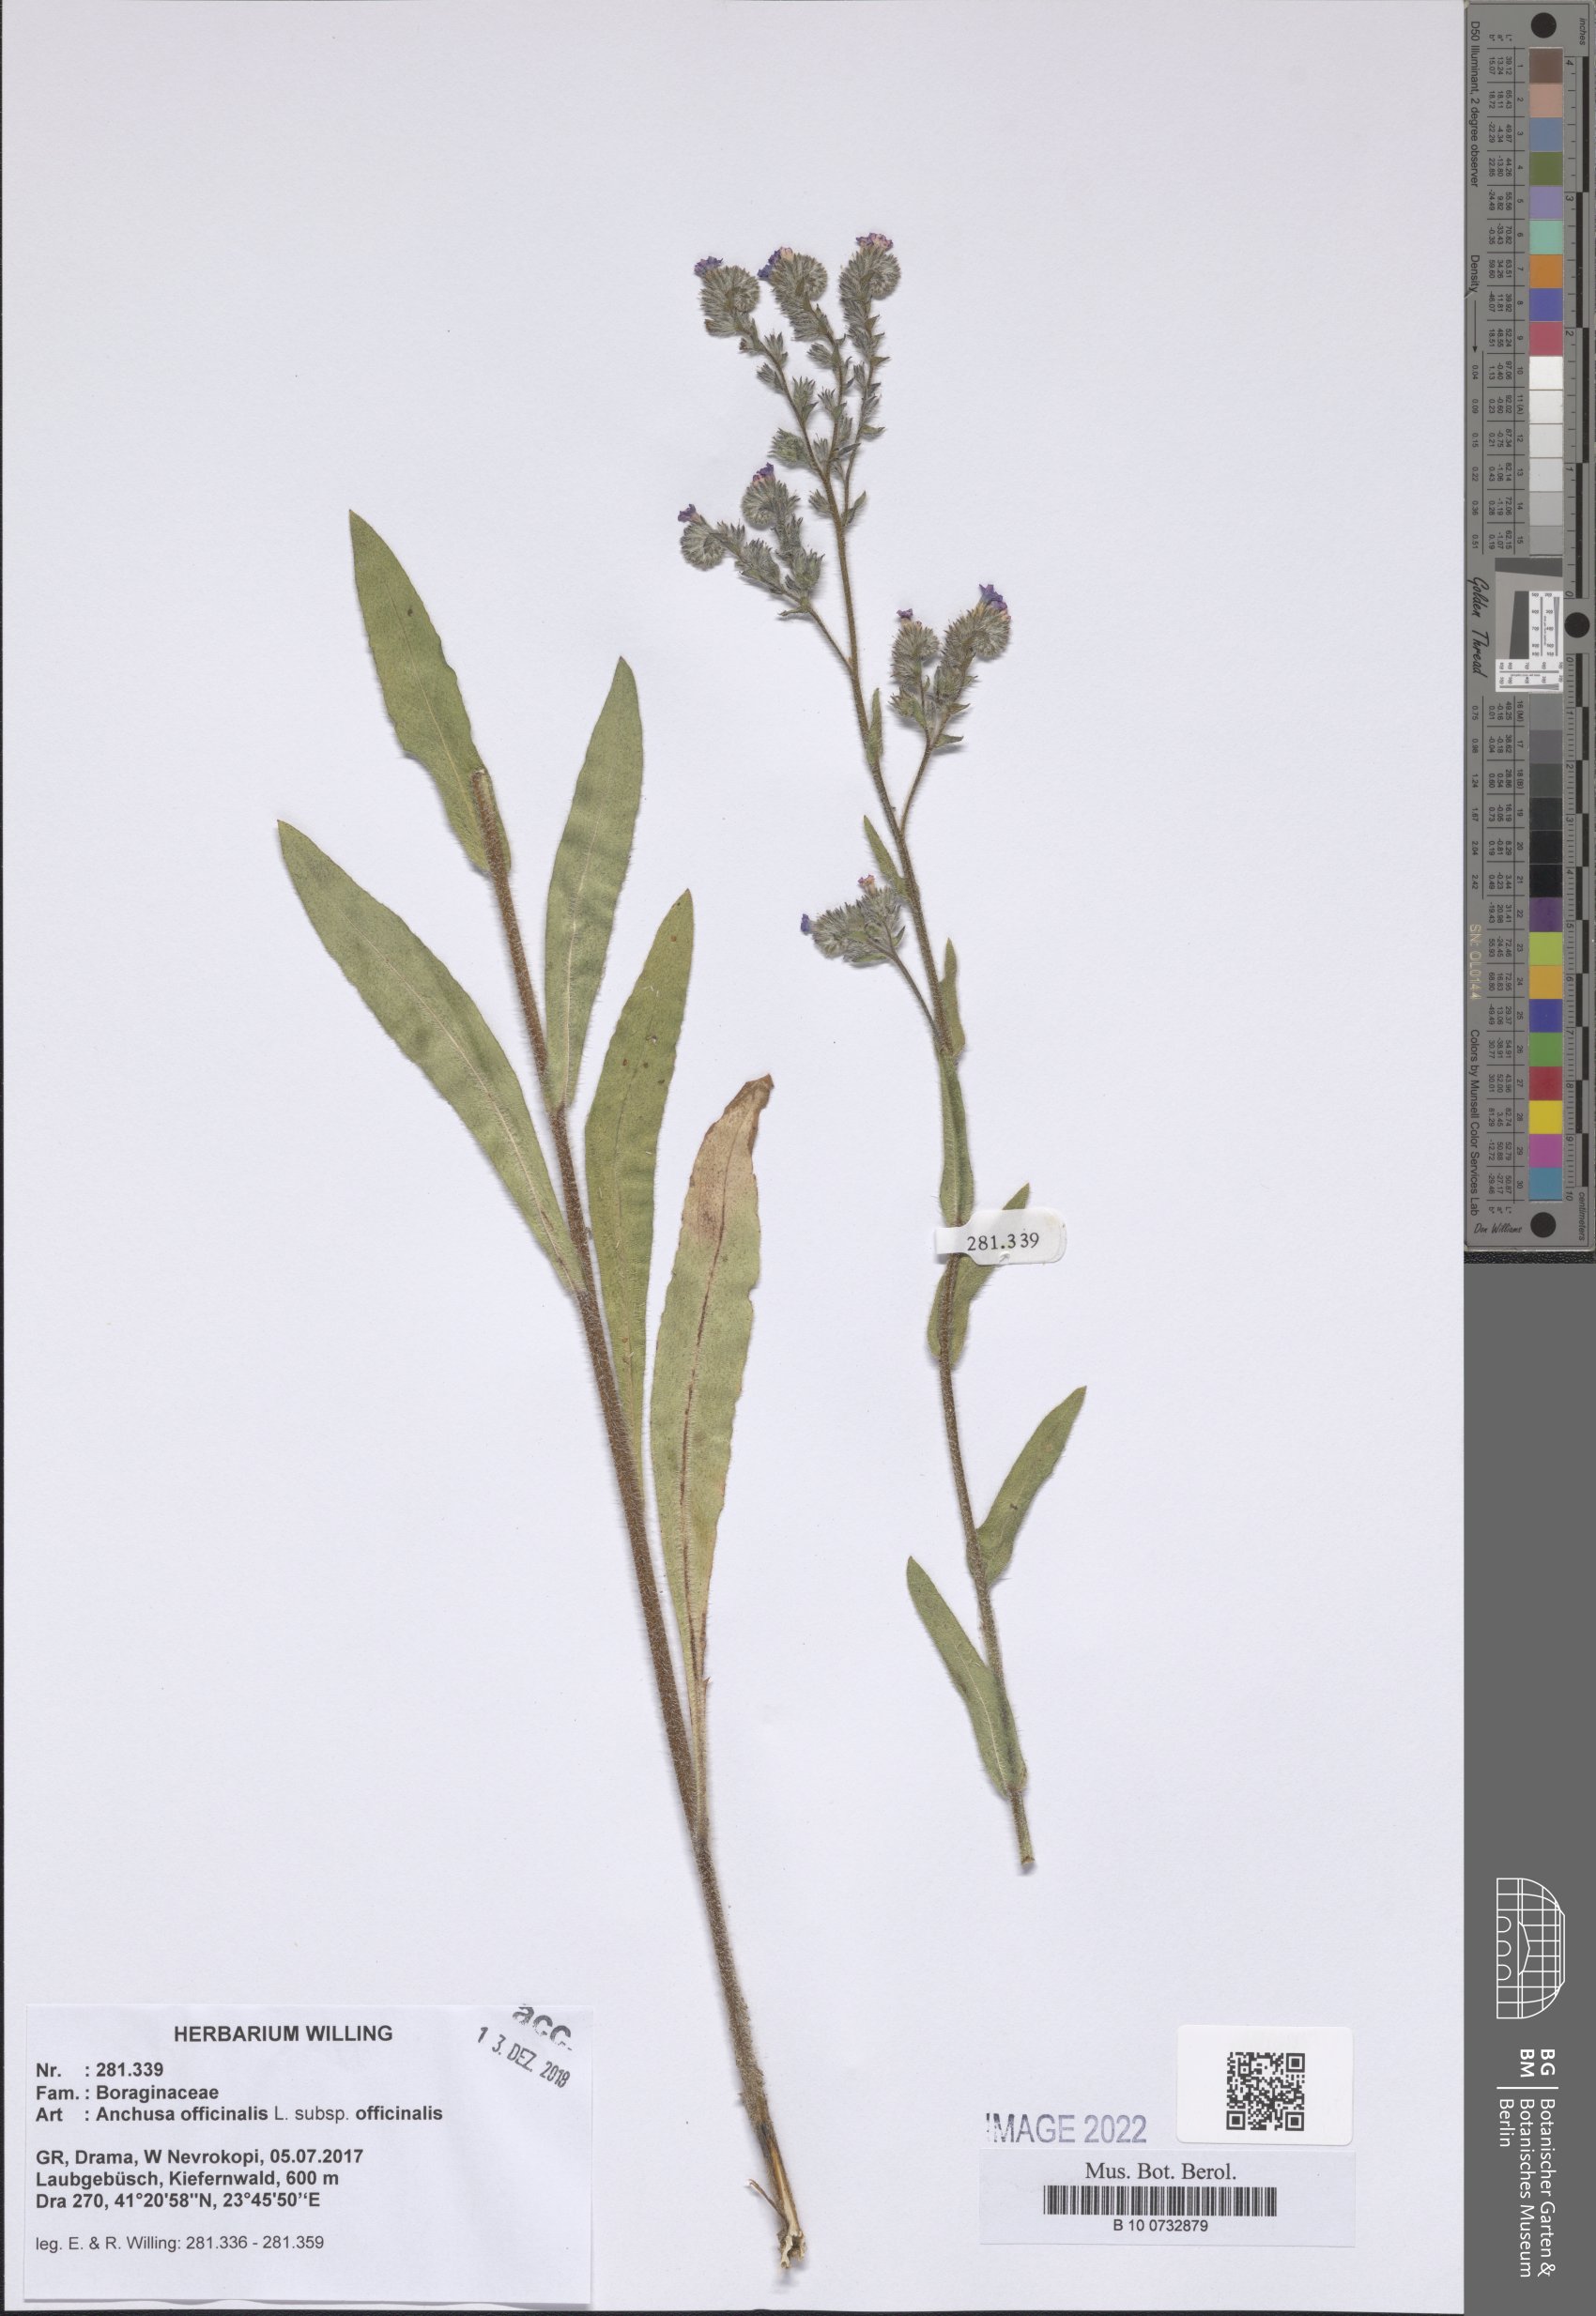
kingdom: Plantae
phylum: Tracheophyta
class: Magnoliopsida
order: Boraginales
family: Boraginaceae
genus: Anchusa
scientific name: Anchusa officinalis
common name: Alkanet
